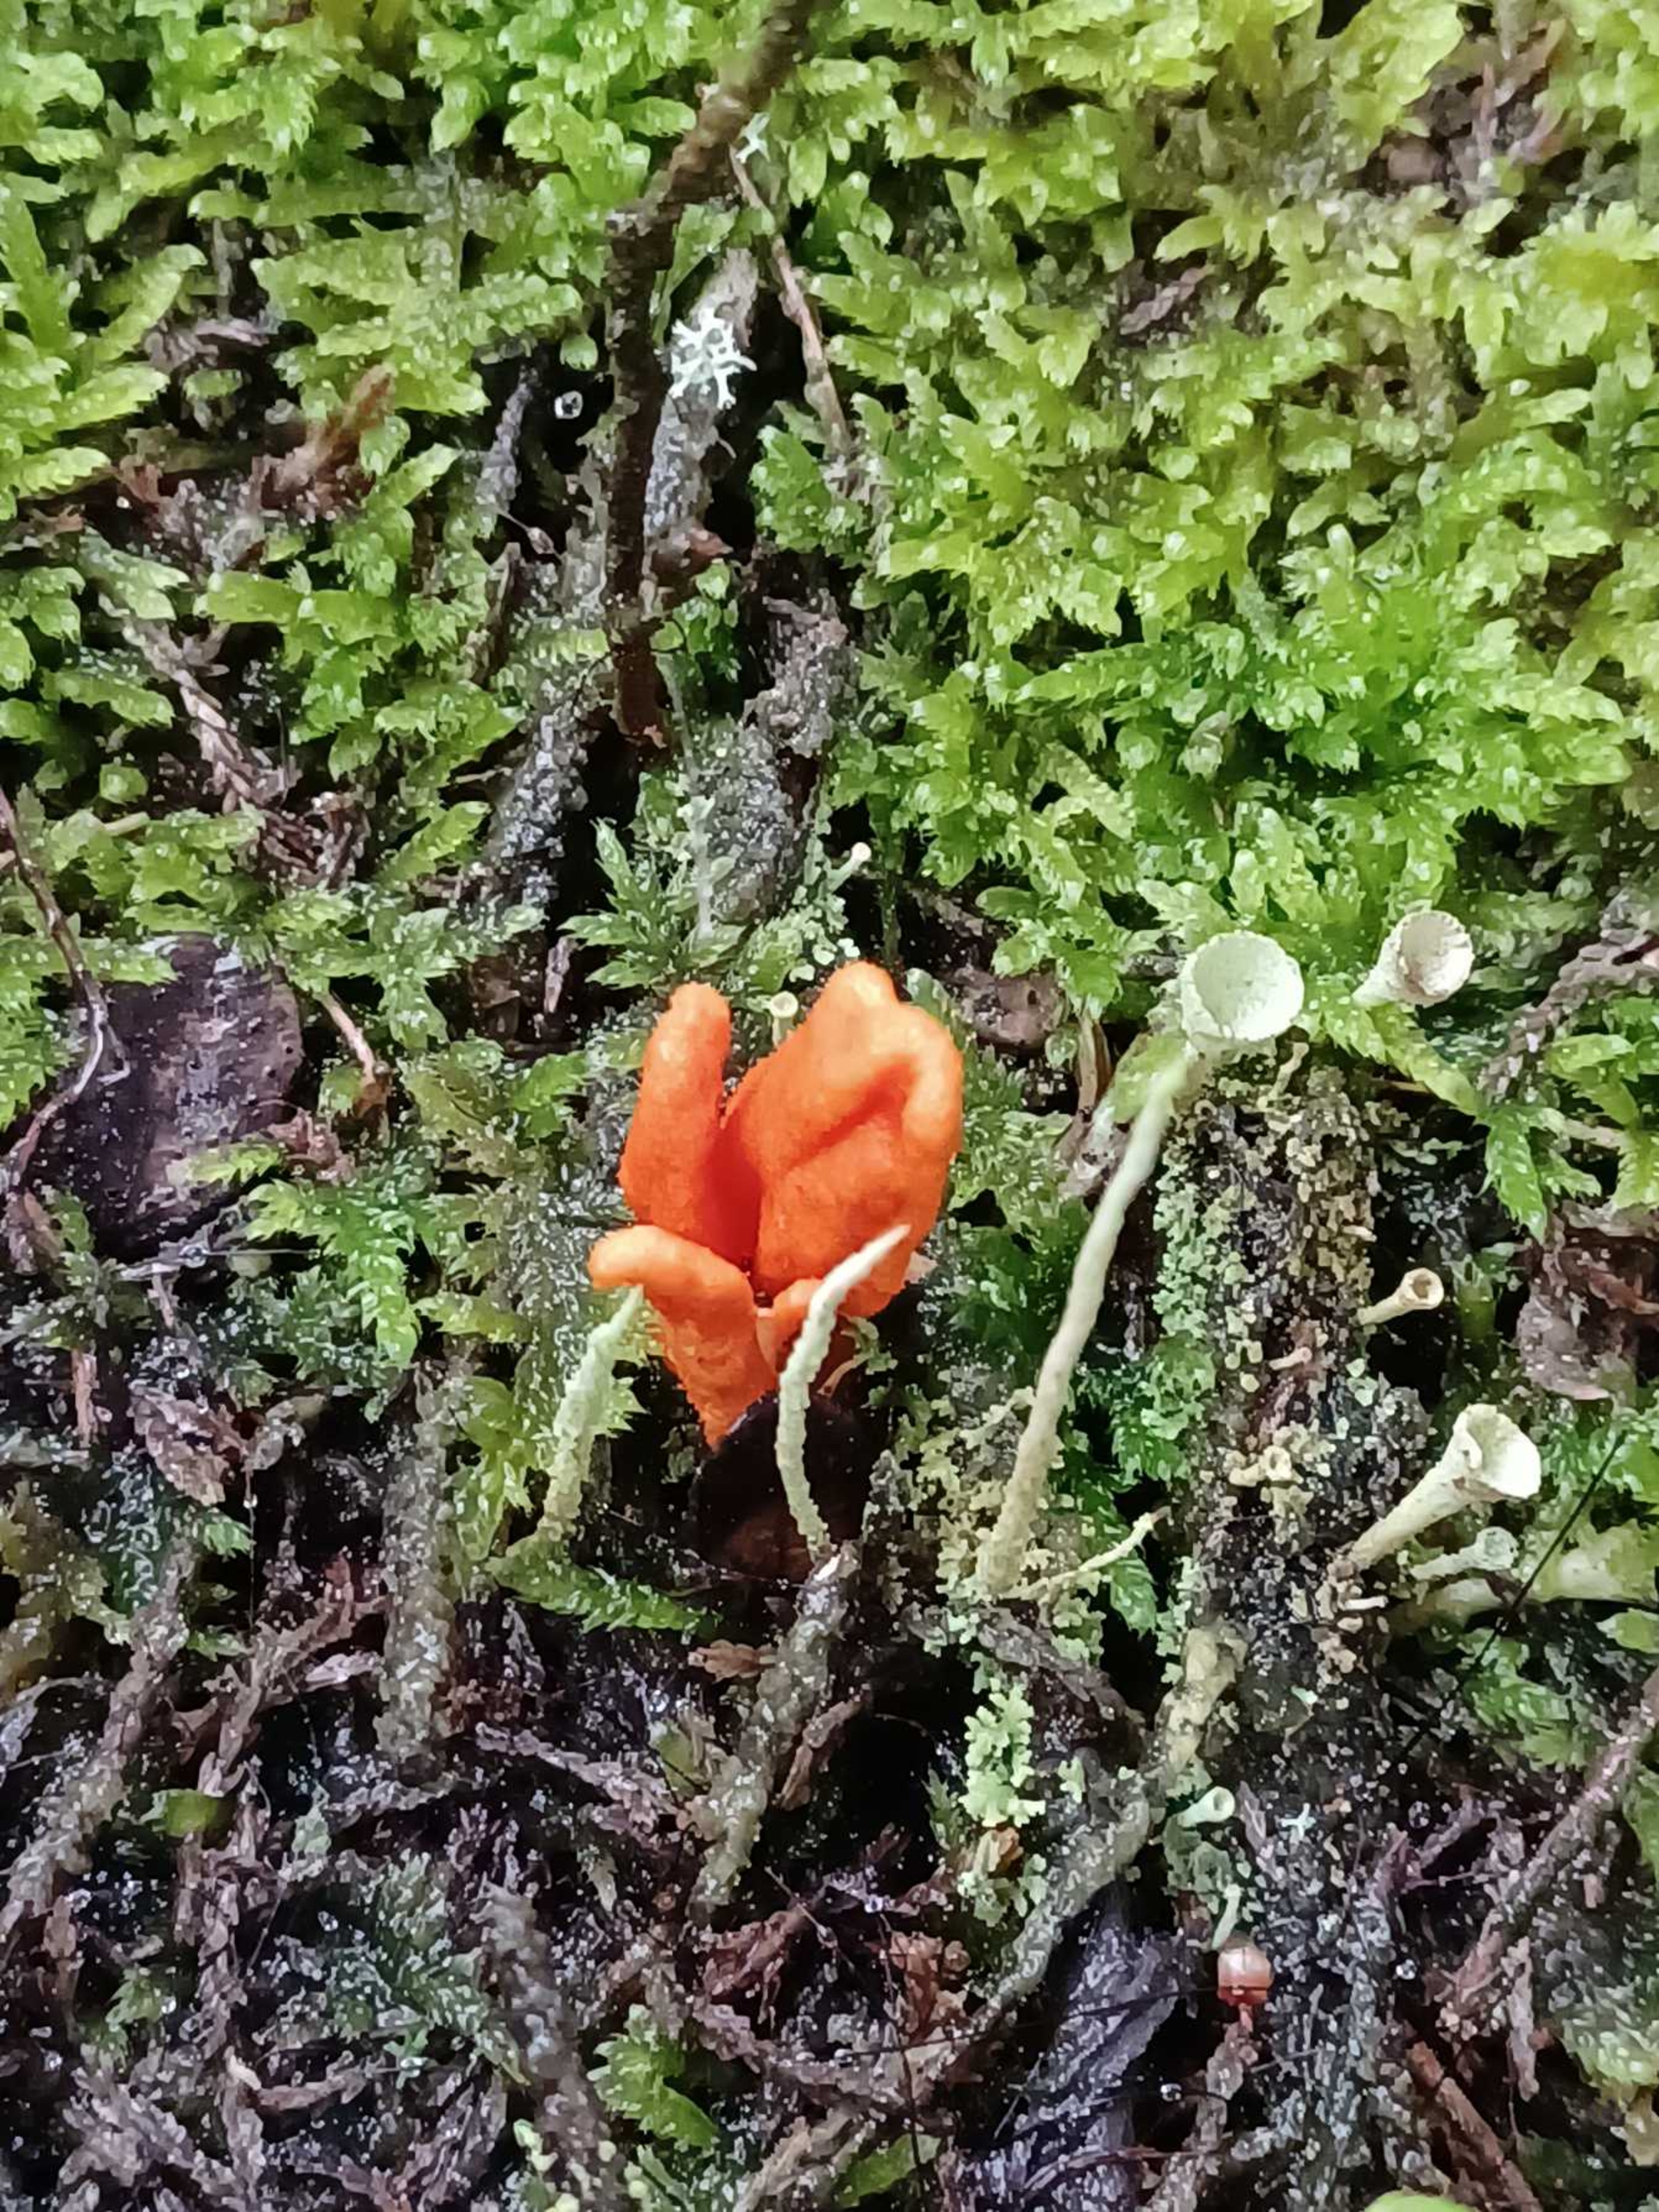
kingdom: Fungi
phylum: Ascomycota
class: Sordariomycetes
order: Hypocreales
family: Cordycipitaceae
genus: Cordyceps
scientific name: Cordyceps militaris
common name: Puppe-snyltekølle
